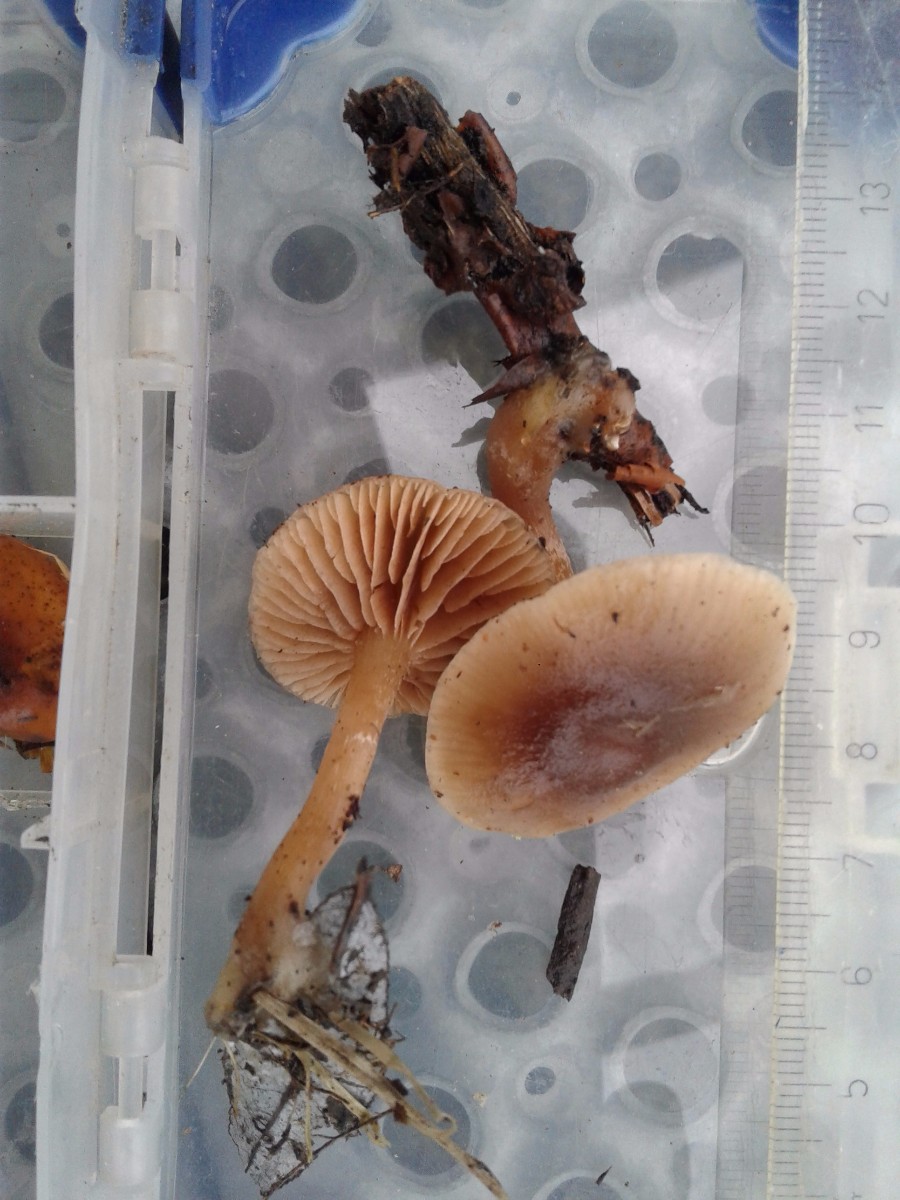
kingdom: Fungi
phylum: Basidiomycota
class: Agaricomycetes
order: Agaricales
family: Strophariaceae
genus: Meottomyces
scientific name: Meottomyces dissimulans
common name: smudsigbrun vinterskælhat
